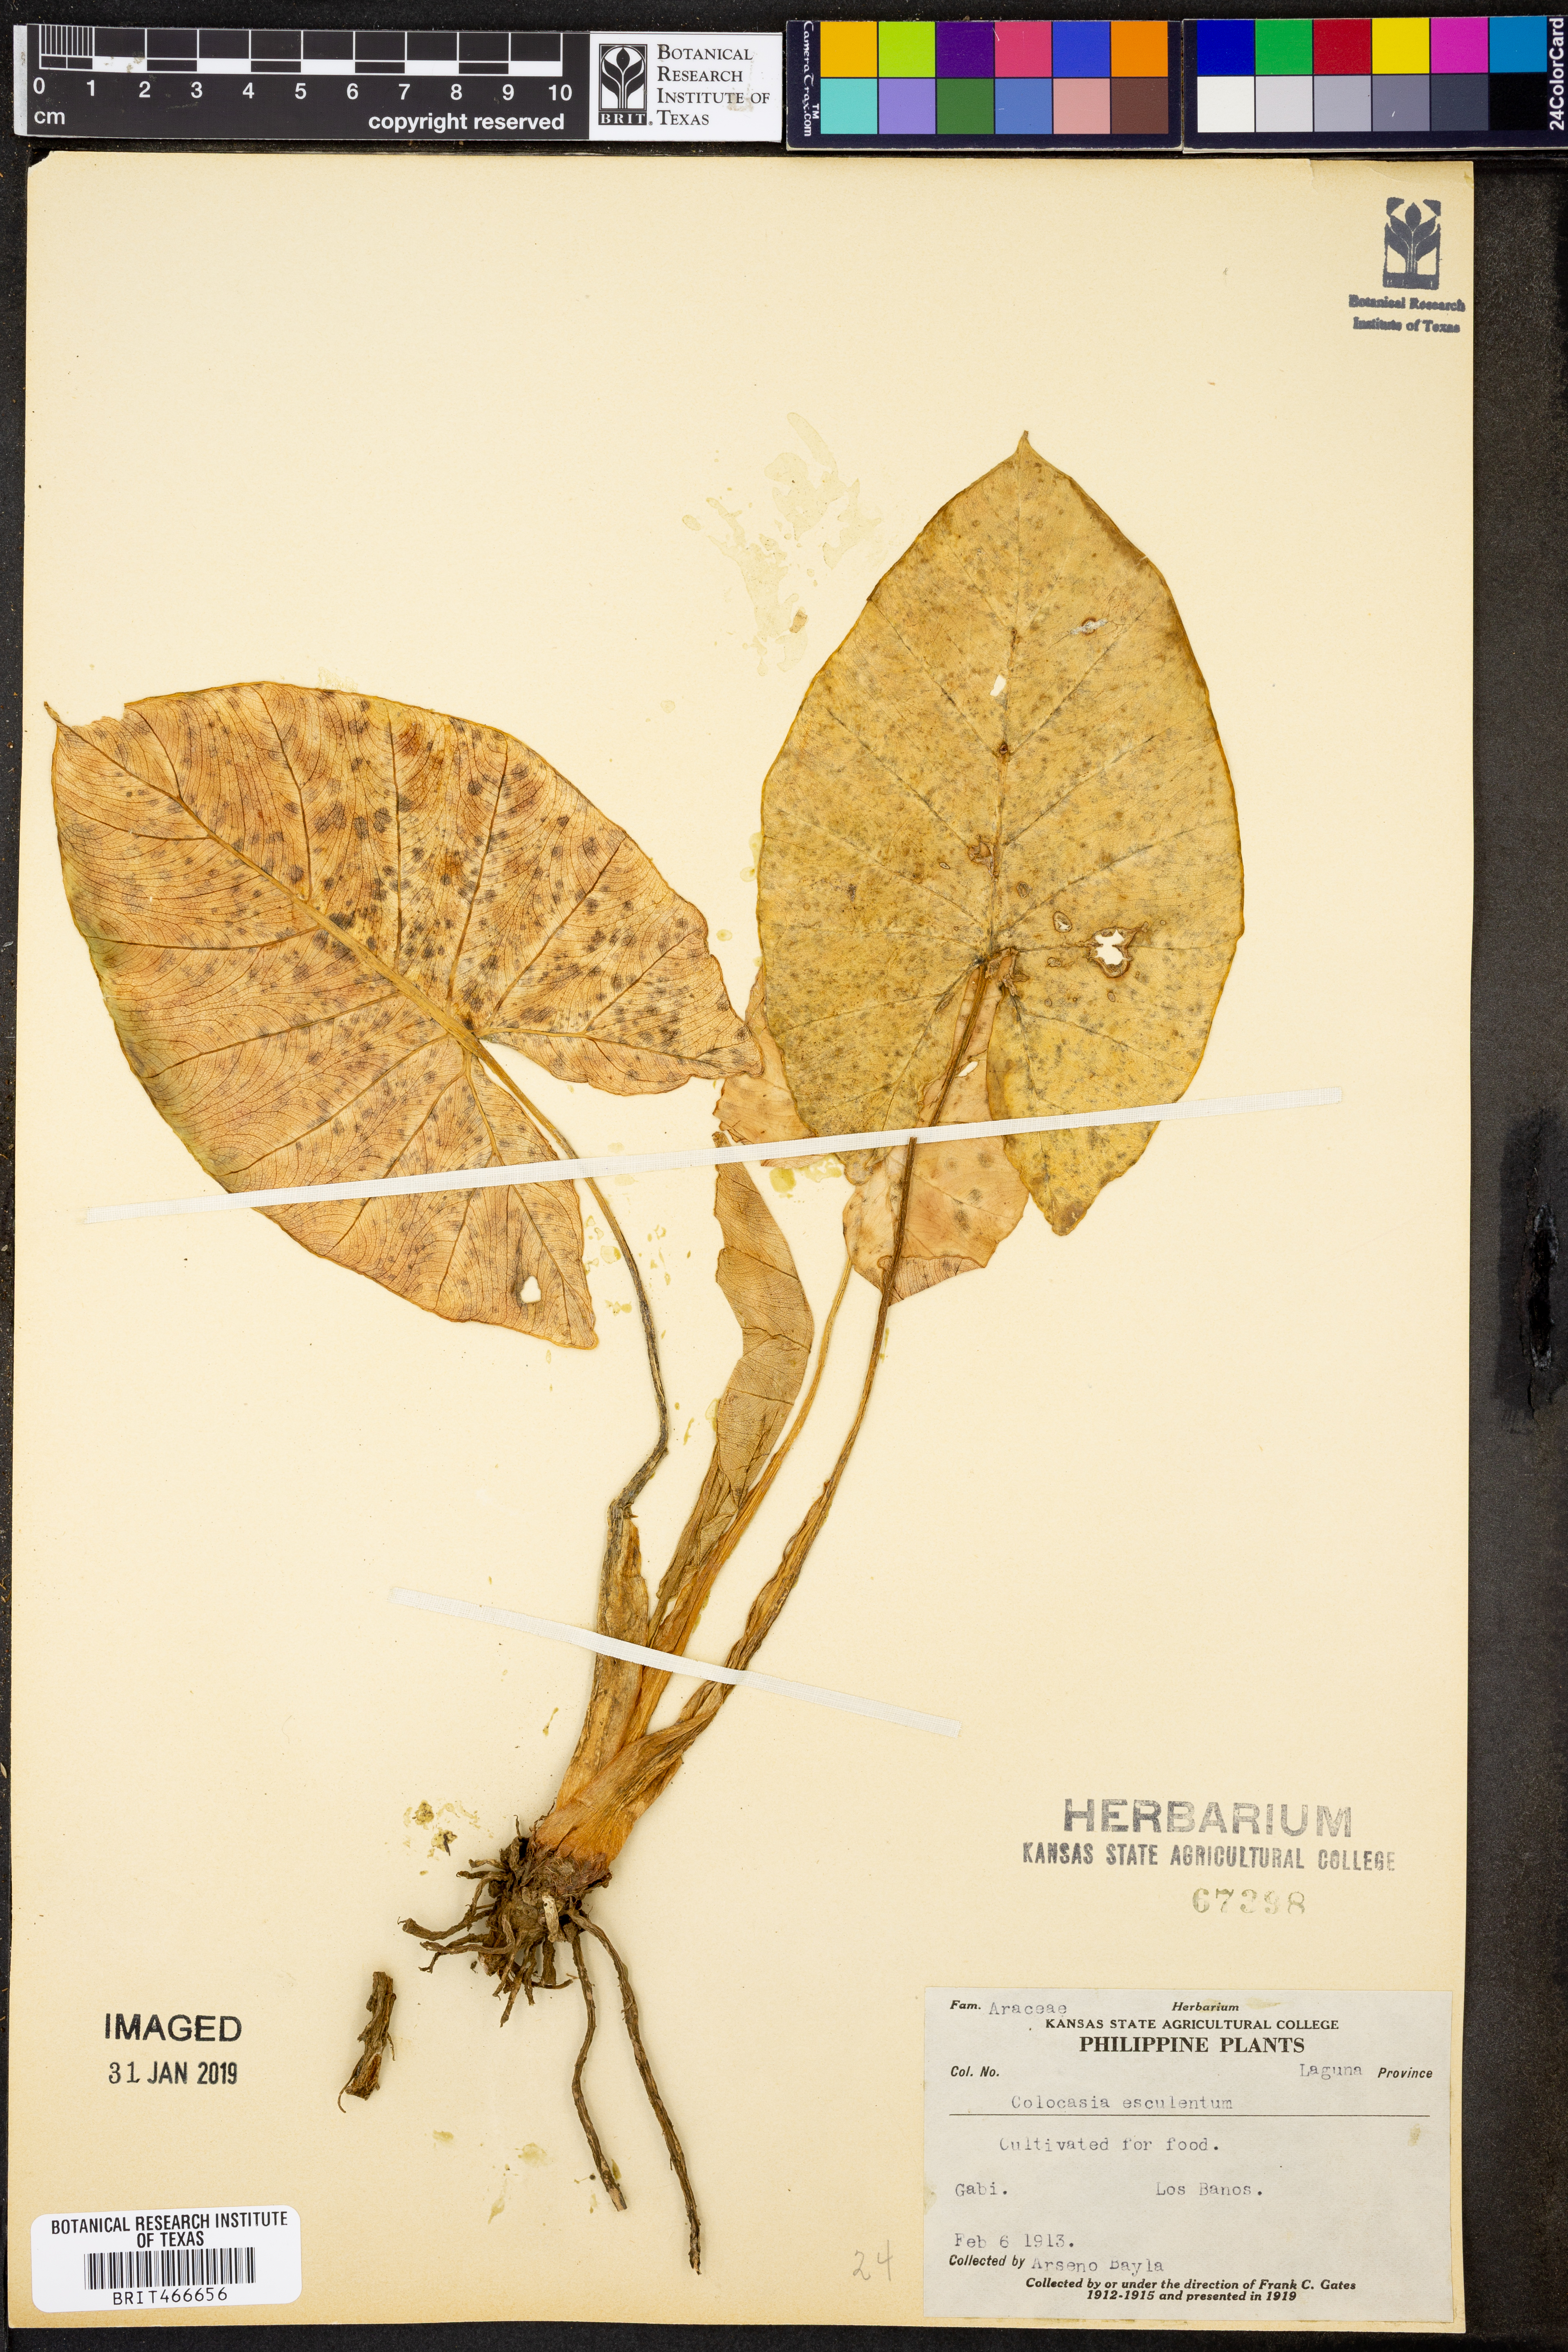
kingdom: Plantae
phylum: Tracheophyta
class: Liliopsida
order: Alismatales
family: Araceae
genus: Colocasia
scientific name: Colocasia esculenta
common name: Taro
